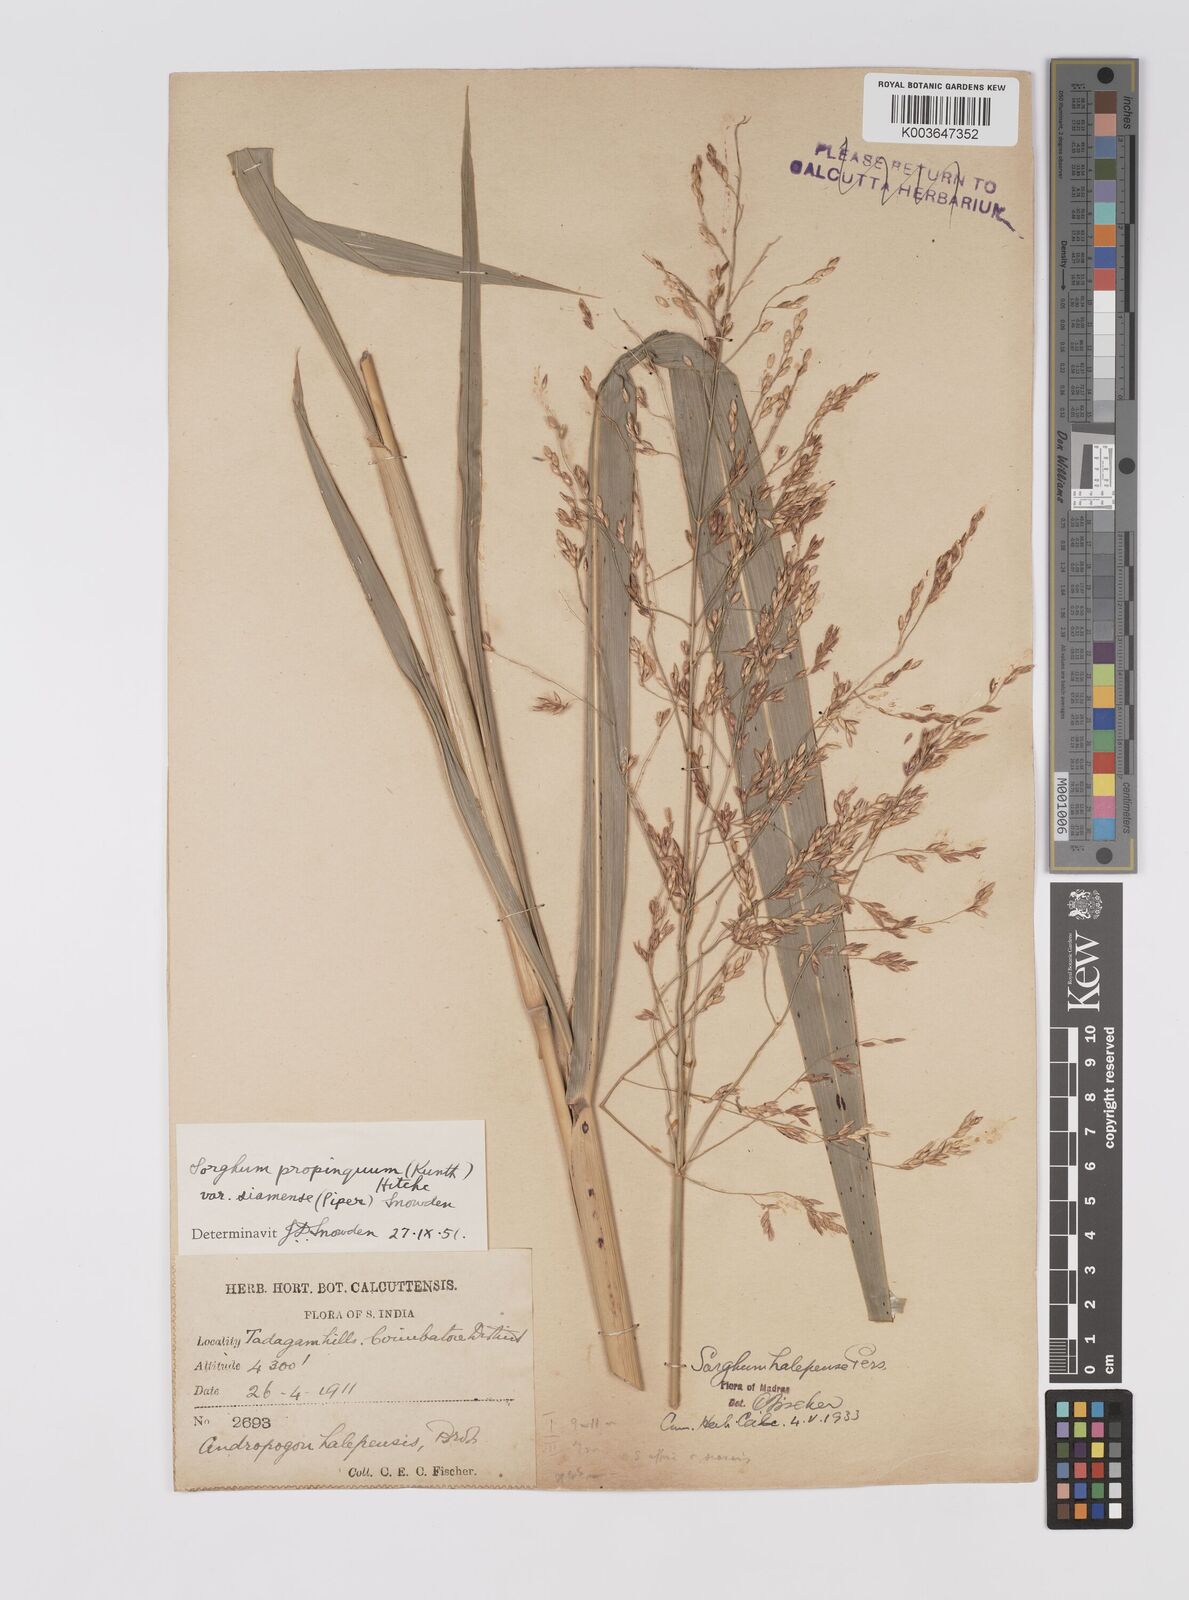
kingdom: Plantae
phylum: Tracheophyta
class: Liliopsida
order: Poales
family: Poaceae
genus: Sorghum
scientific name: Sorghum propinquum
